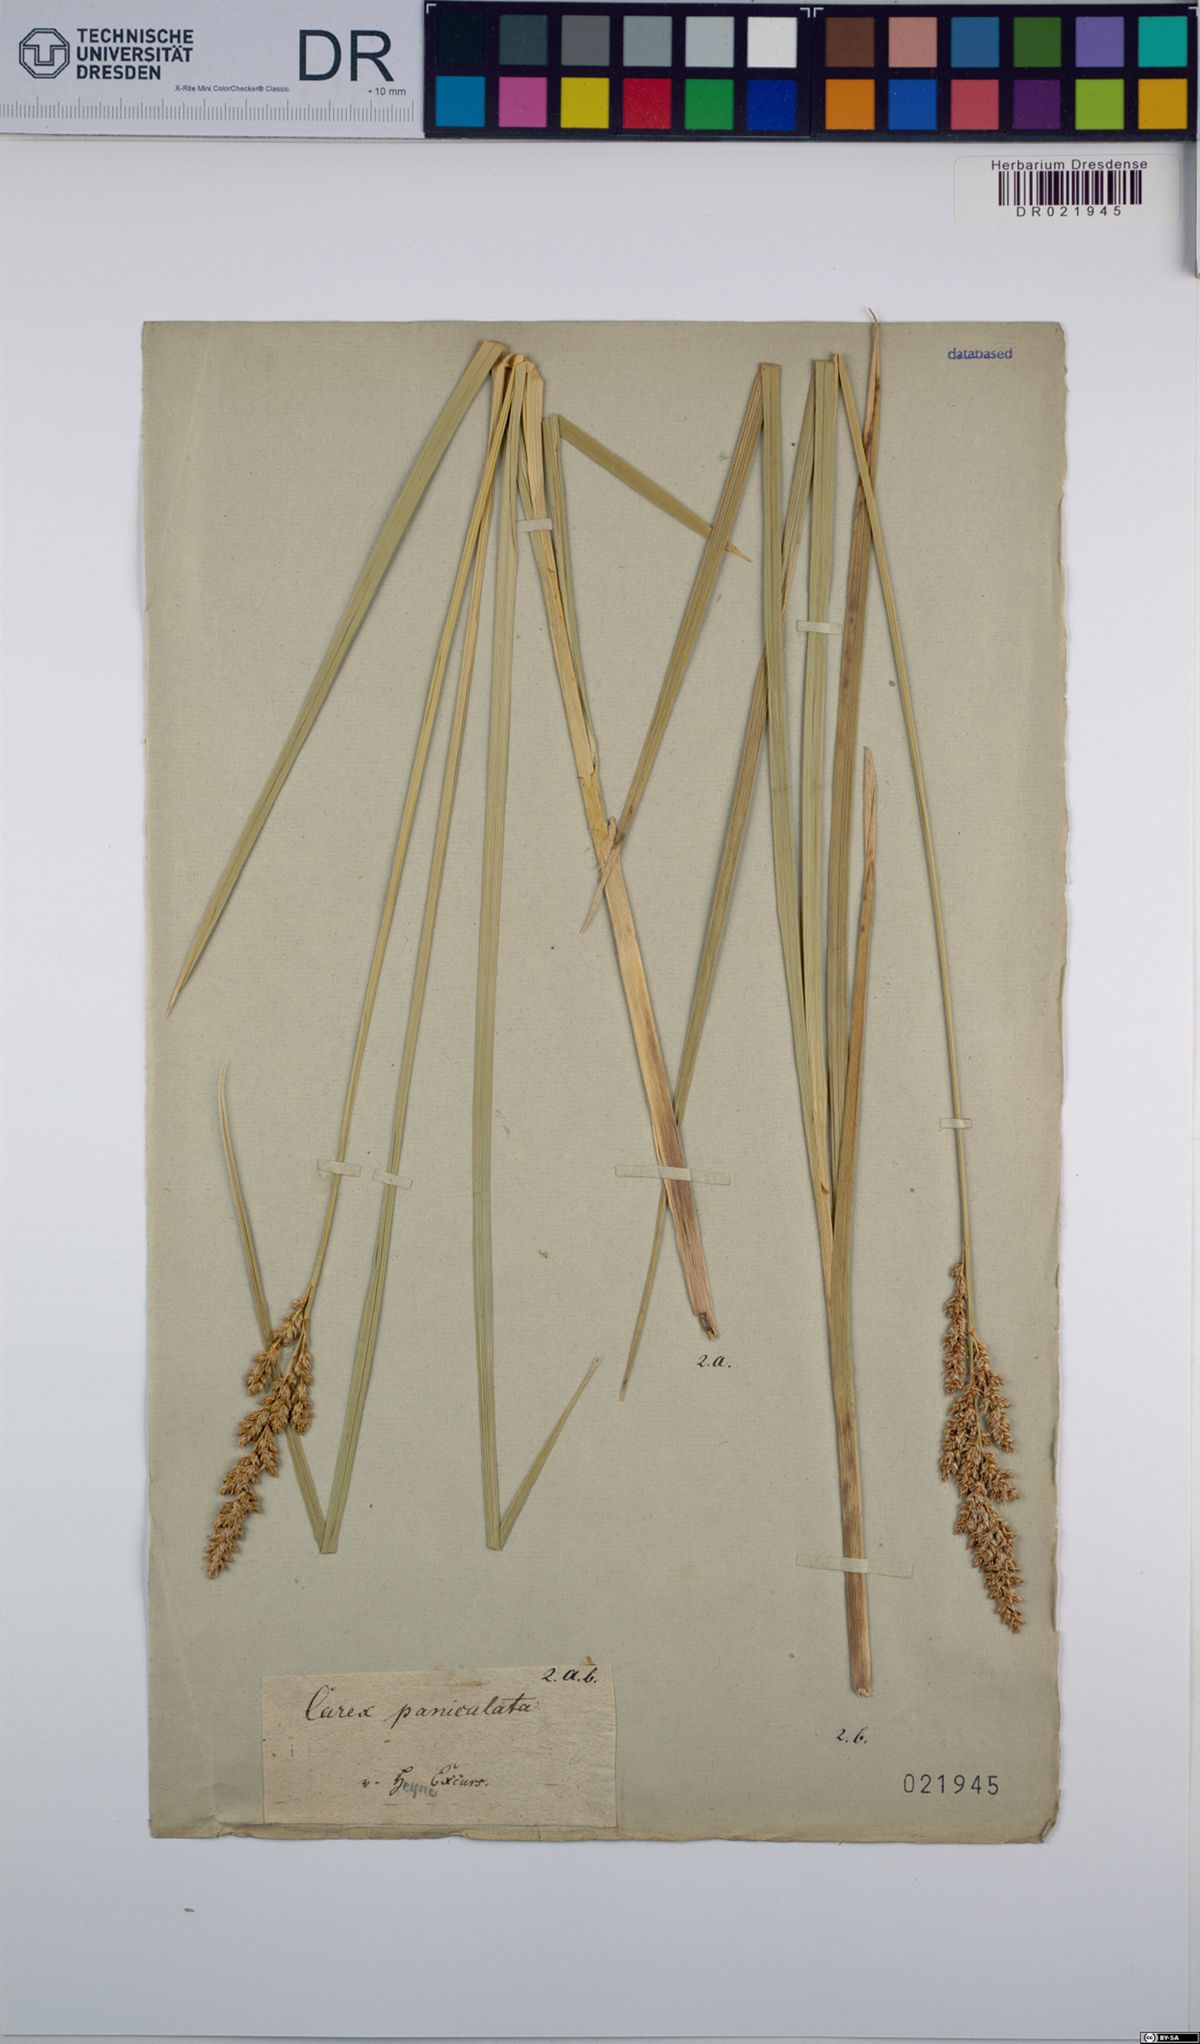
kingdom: Plantae
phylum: Tracheophyta
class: Liliopsida
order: Poales
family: Cyperaceae
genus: Carex
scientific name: Carex paniculata
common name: Greater tussock-sedge
